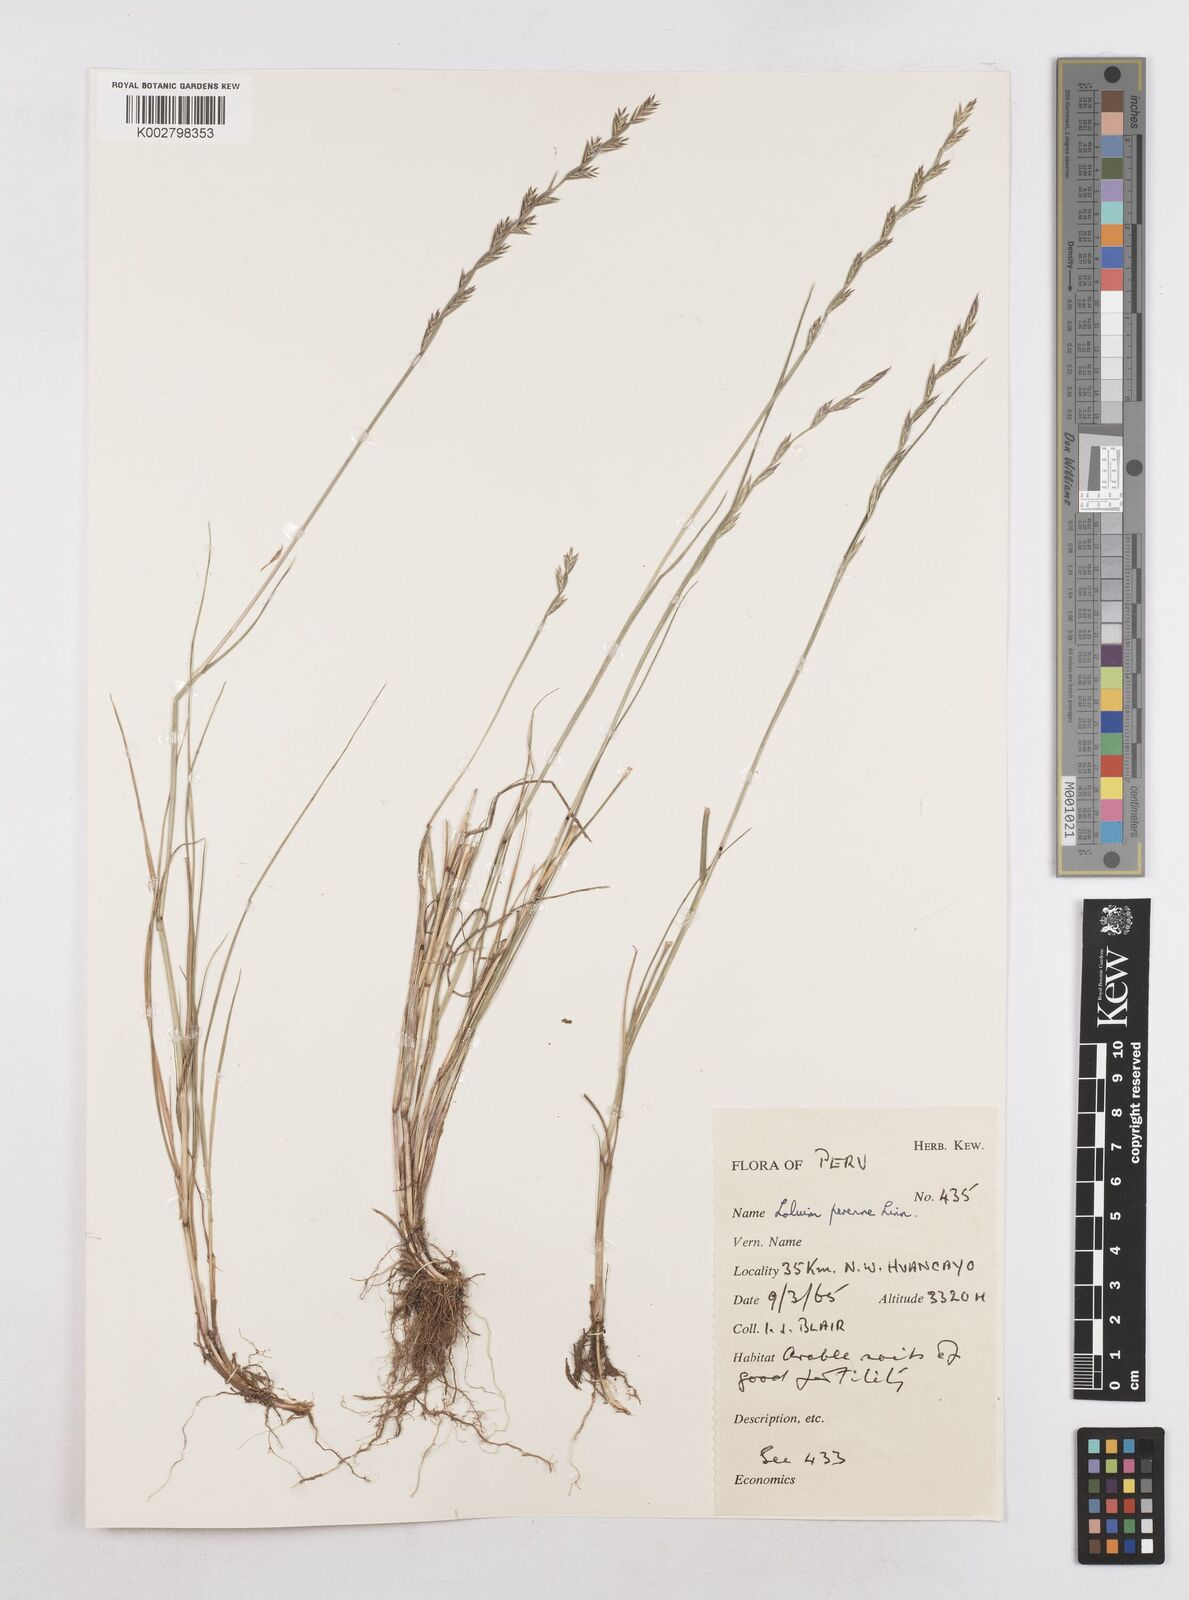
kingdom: Plantae
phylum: Tracheophyta
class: Liliopsida
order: Poales
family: Poaceae
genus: Lolium
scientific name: Lolium perenne
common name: Perennial ryegrass
